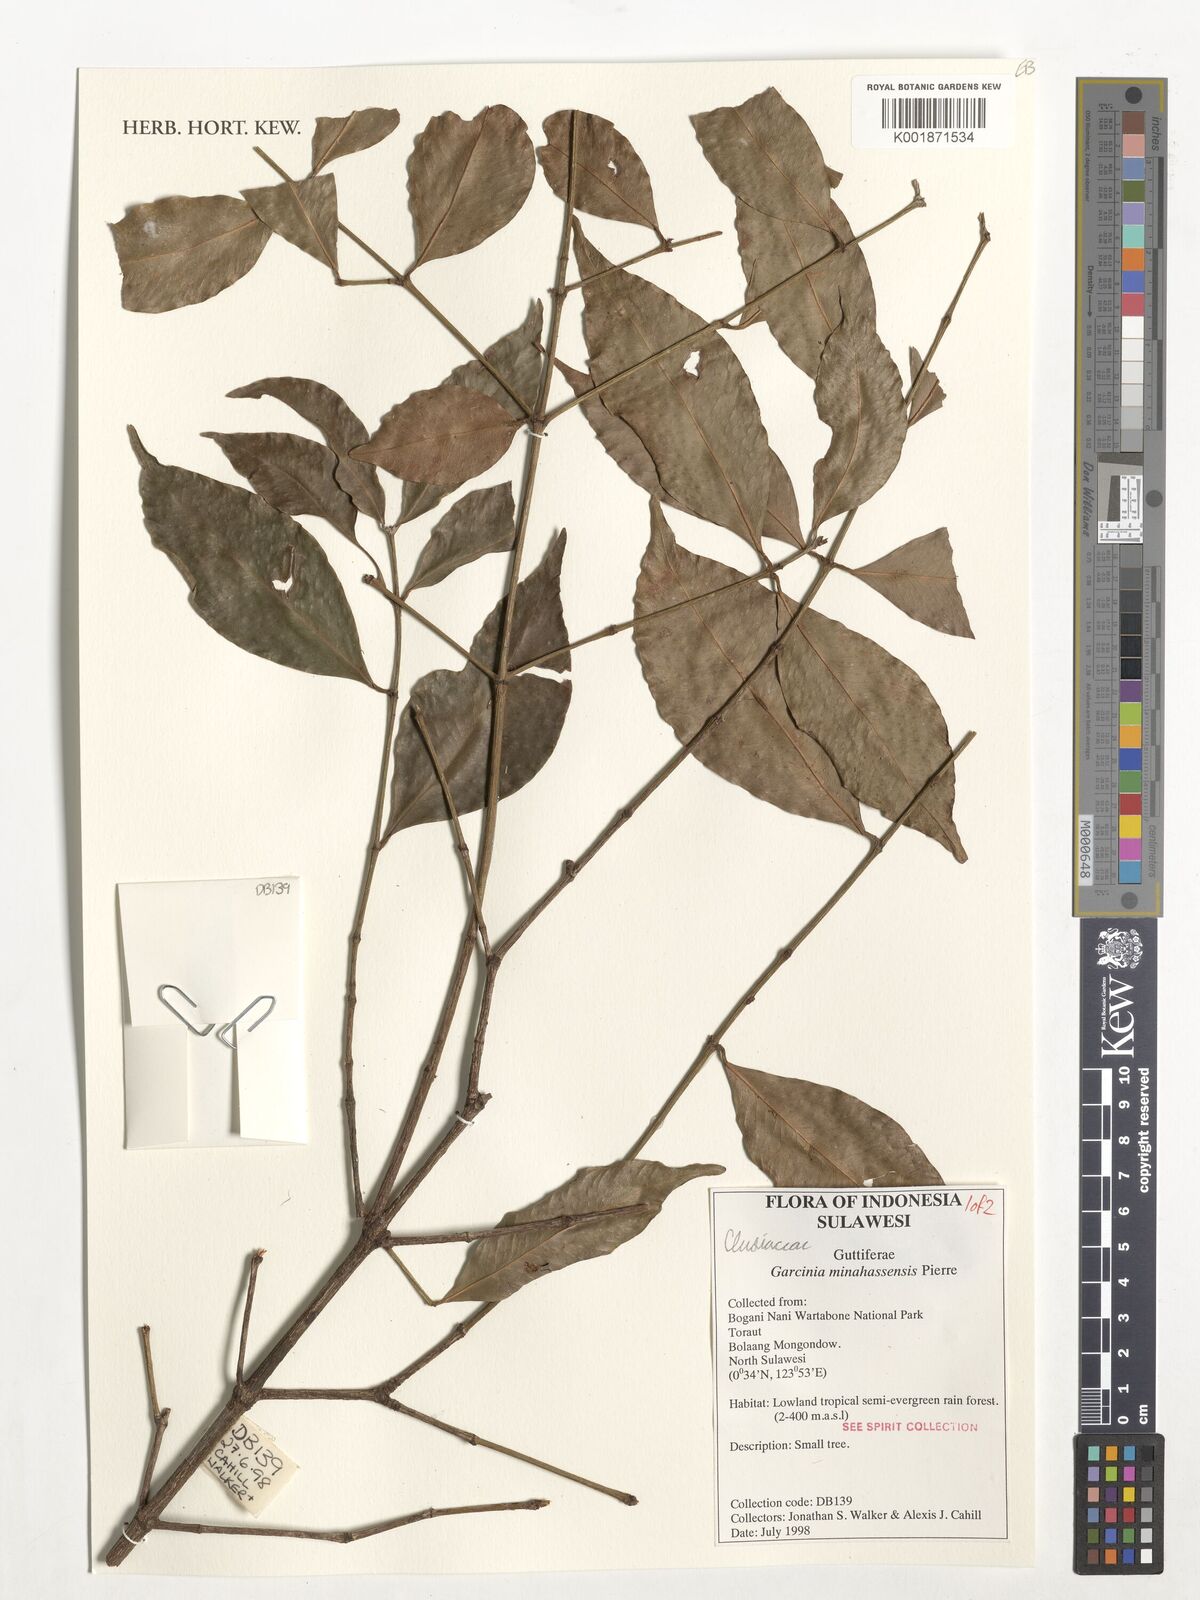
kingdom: Plantae
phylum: Tracheophyta
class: Magnoliopsida
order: Malpighiales
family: Clusiaceae
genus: Garcinia
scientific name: Garcinia minahassensis
